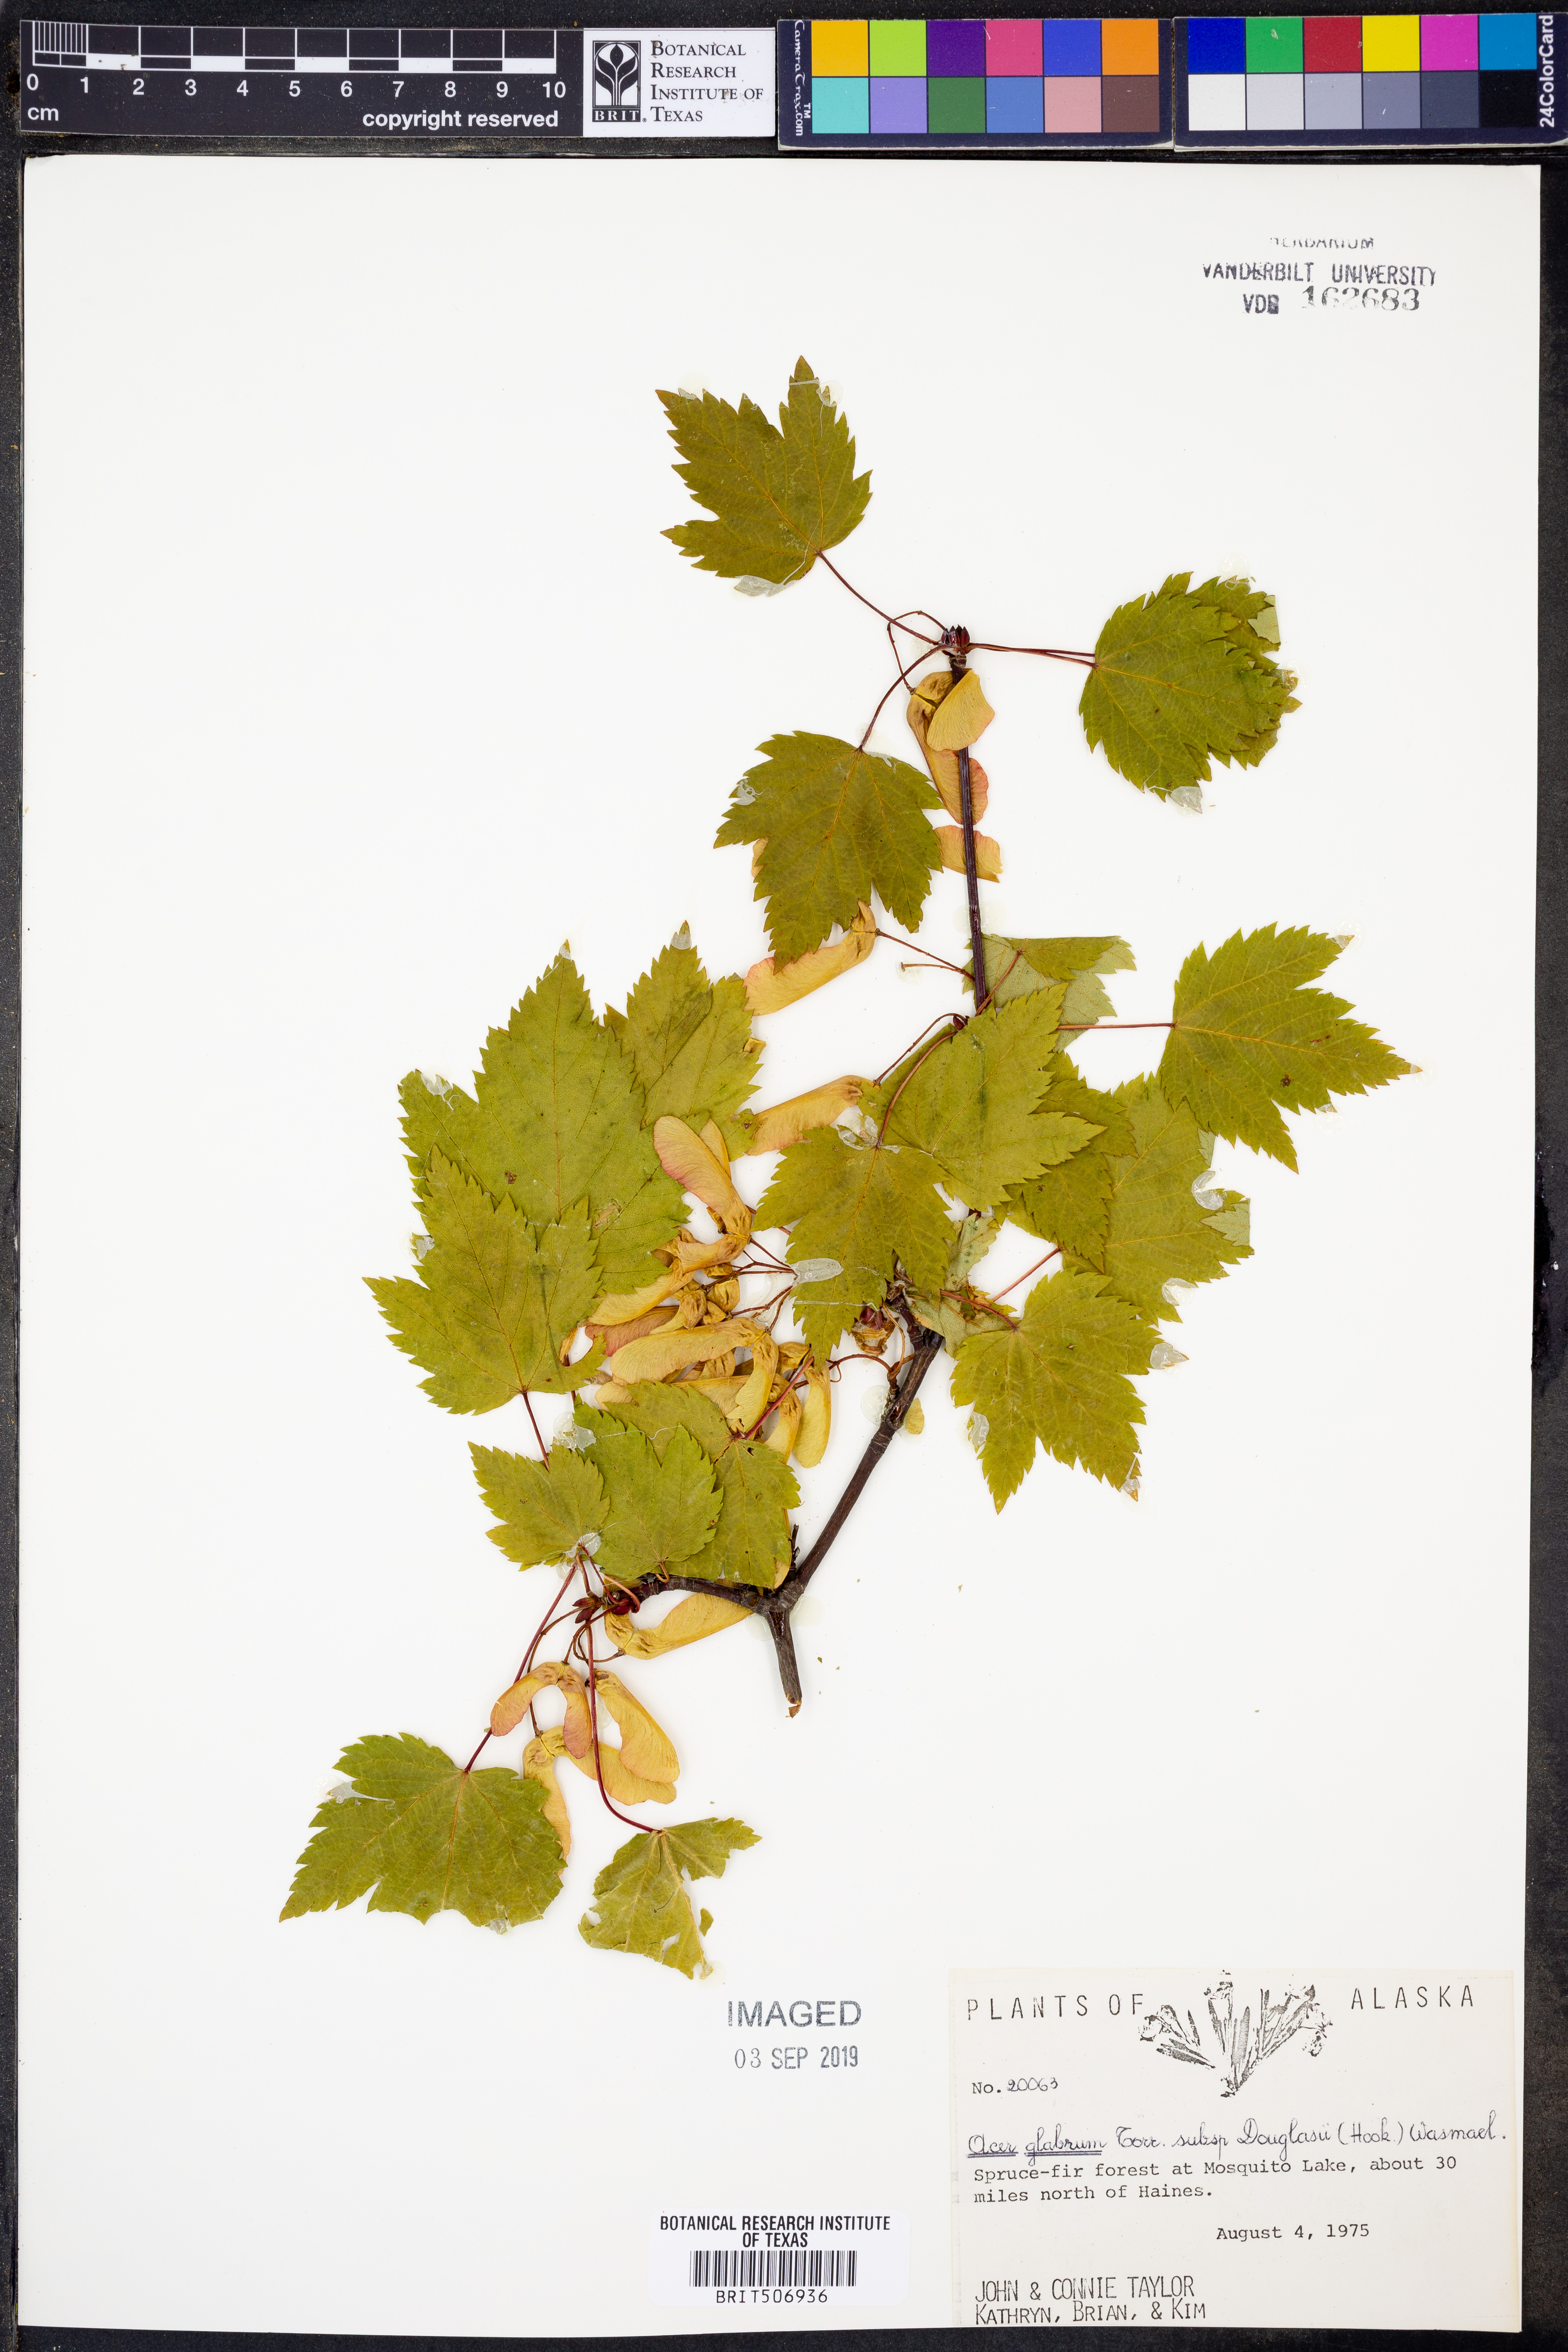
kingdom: Plantae
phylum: Tracheophyta
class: Magnoliopsida
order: Sapindales
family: Sapindaceae
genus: Acer
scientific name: Acer glabrum
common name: Rocky mountain maple
